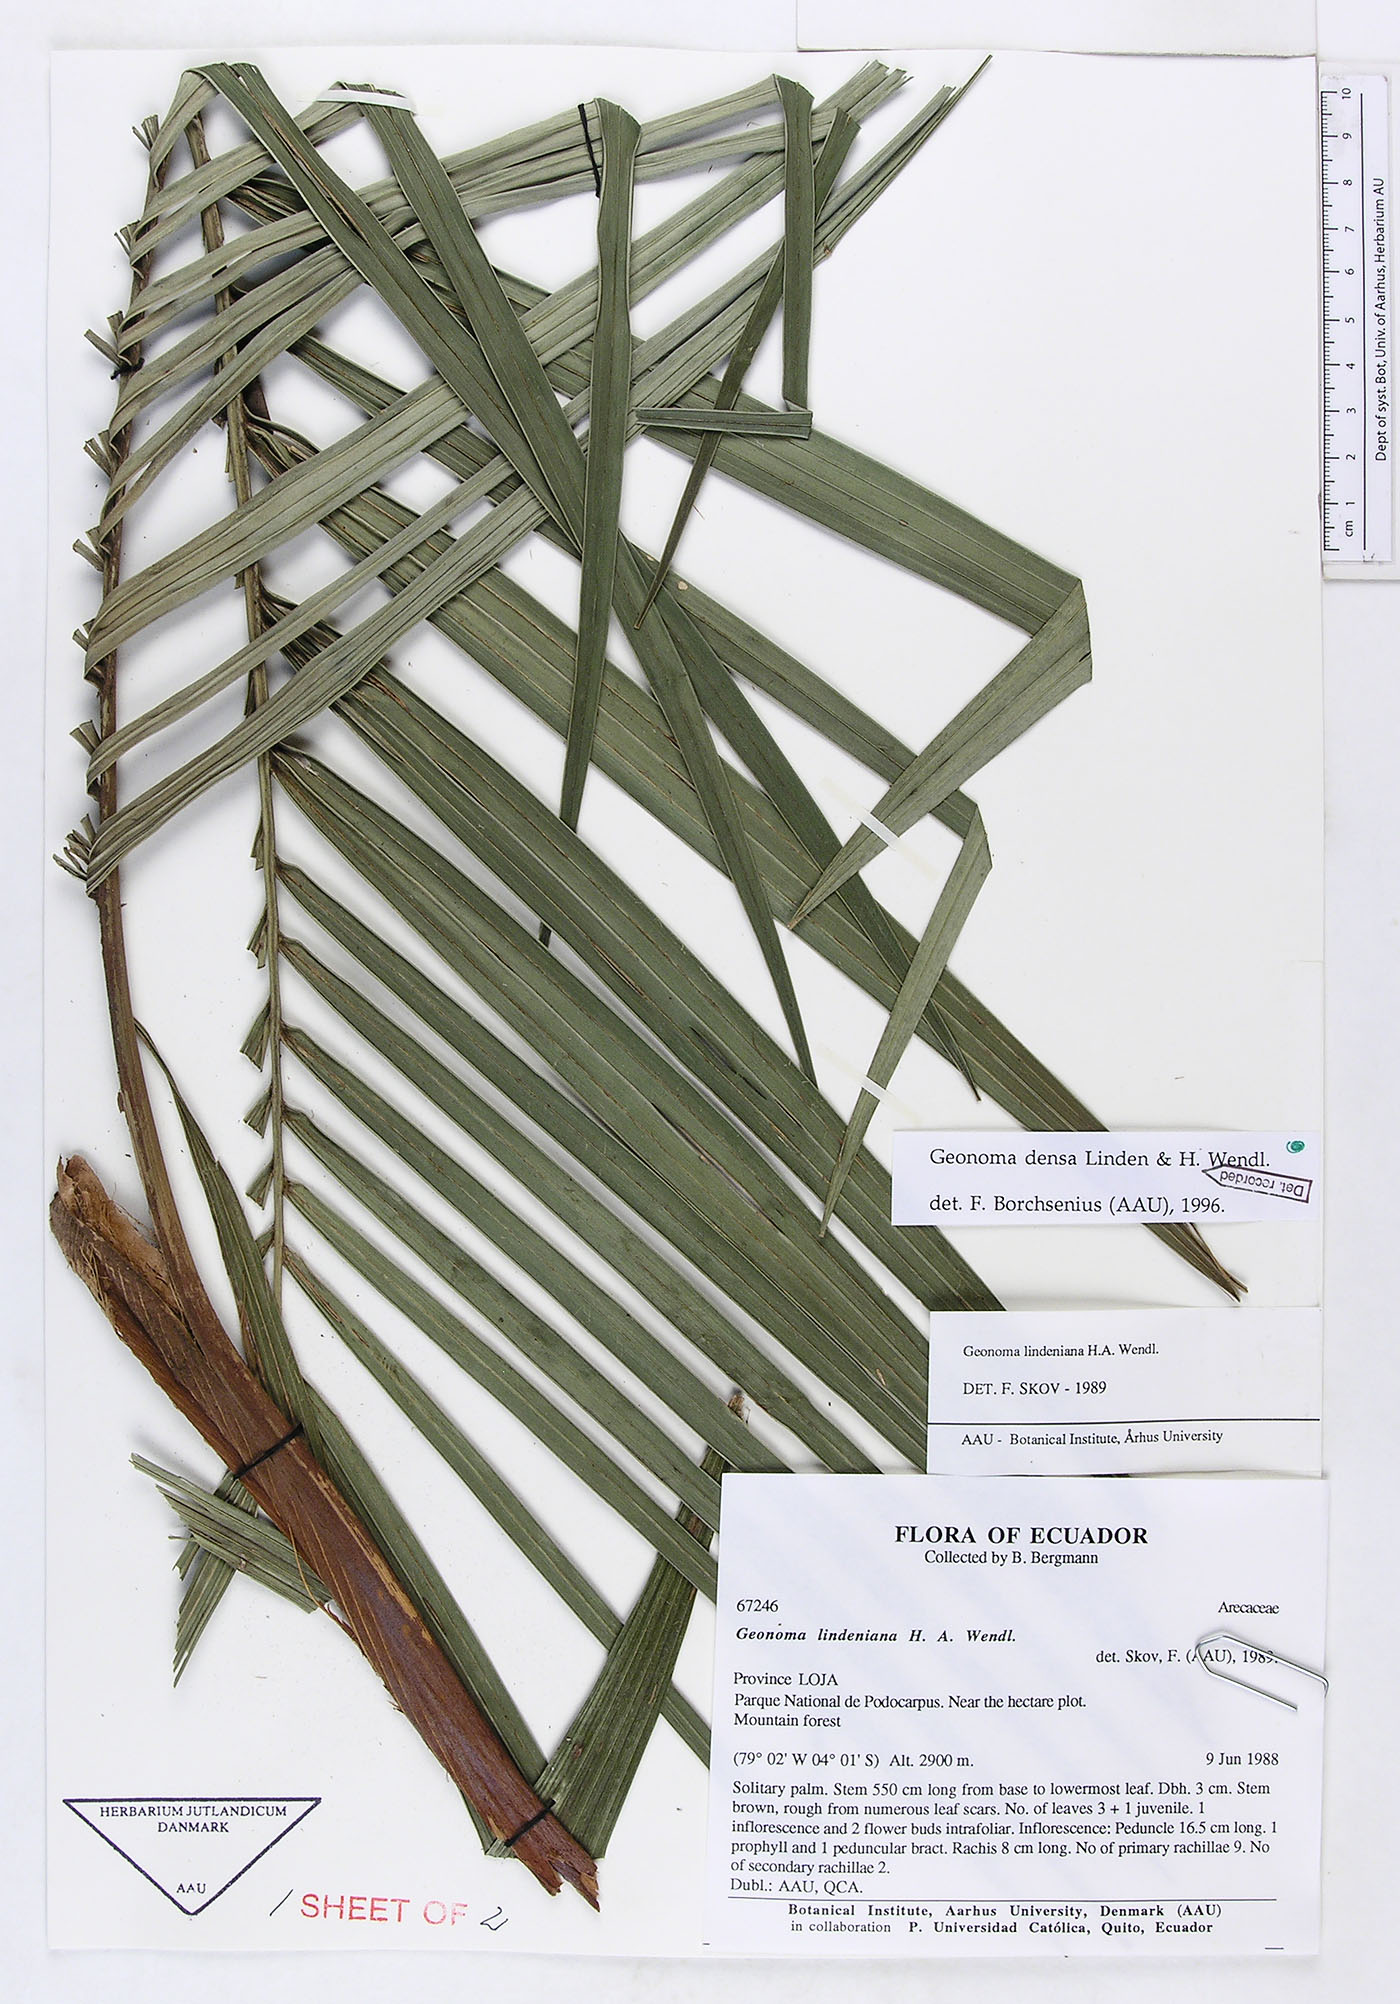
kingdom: Plantae
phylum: Tracheophyta
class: Liliopsida
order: Arecales
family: Arecaceae
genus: Geonoma
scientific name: Geonoma undata
